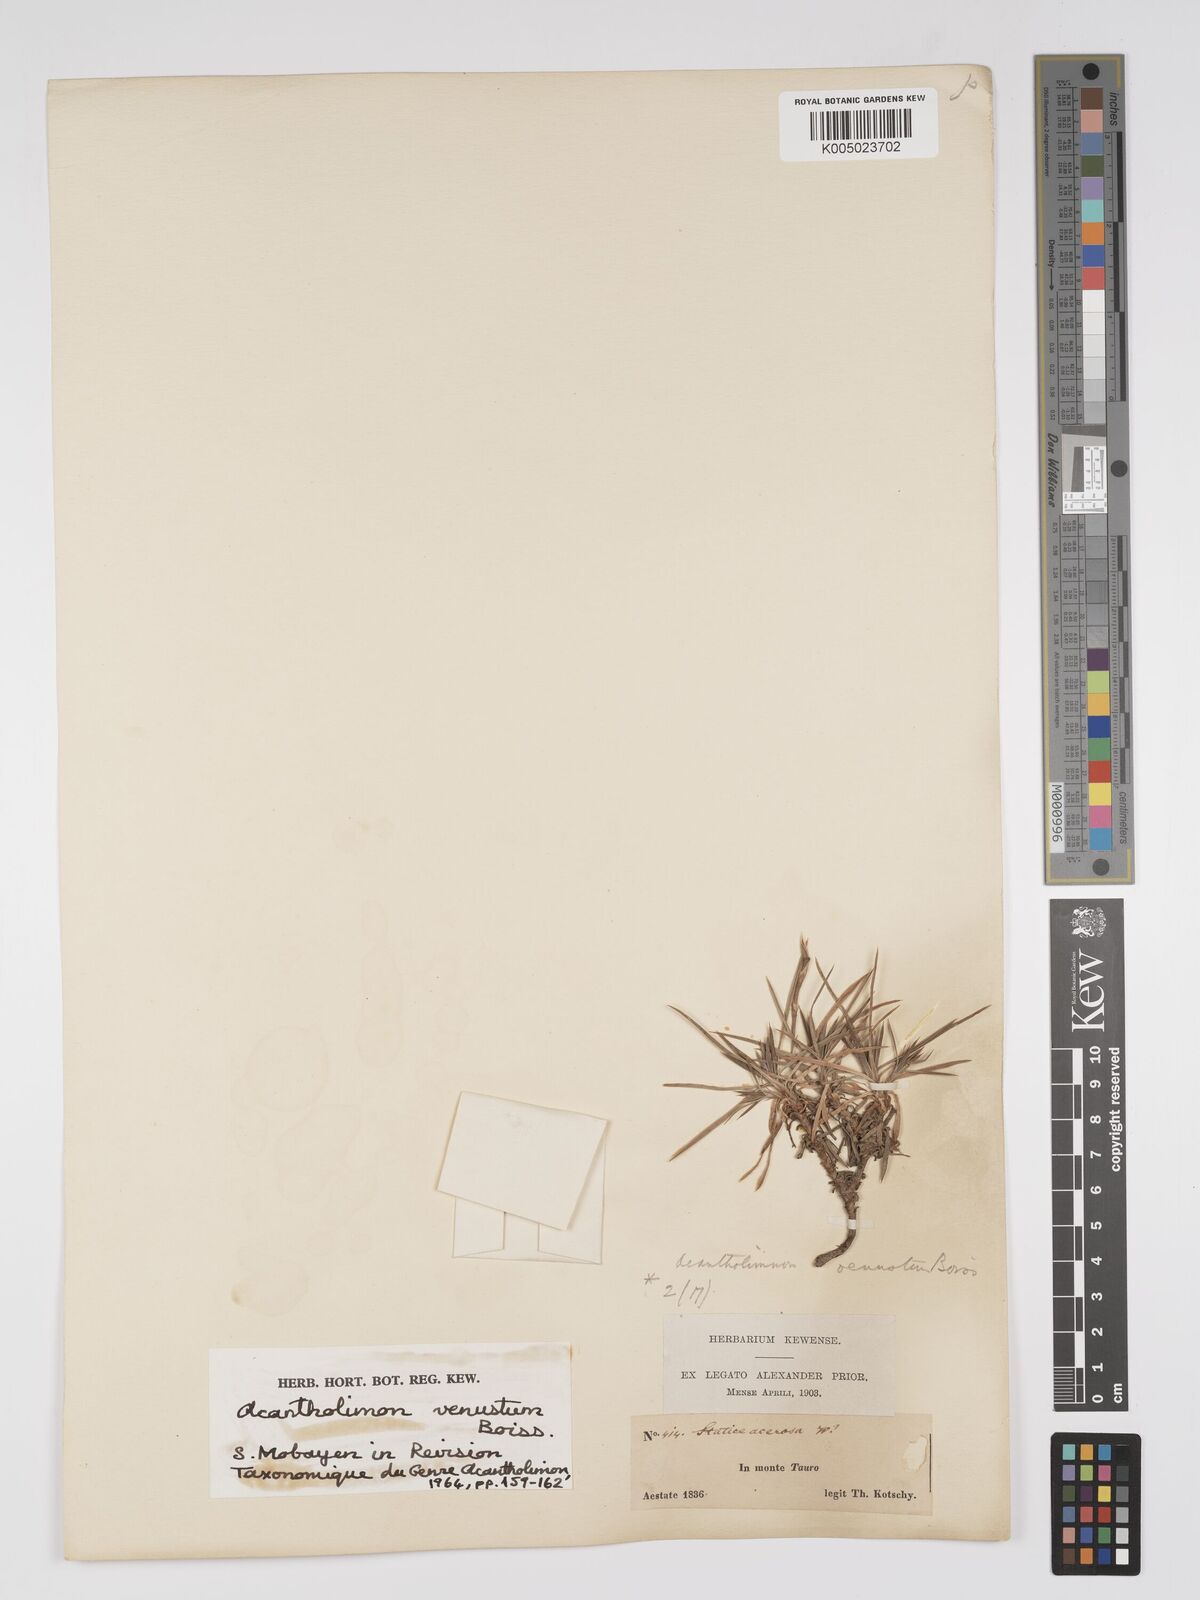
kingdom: Plantae
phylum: Tracheophyta
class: Magnoliopsida
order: Caryophyllales
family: Plumbaginaceae
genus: Acantholimon
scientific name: Acantholimon venustum
